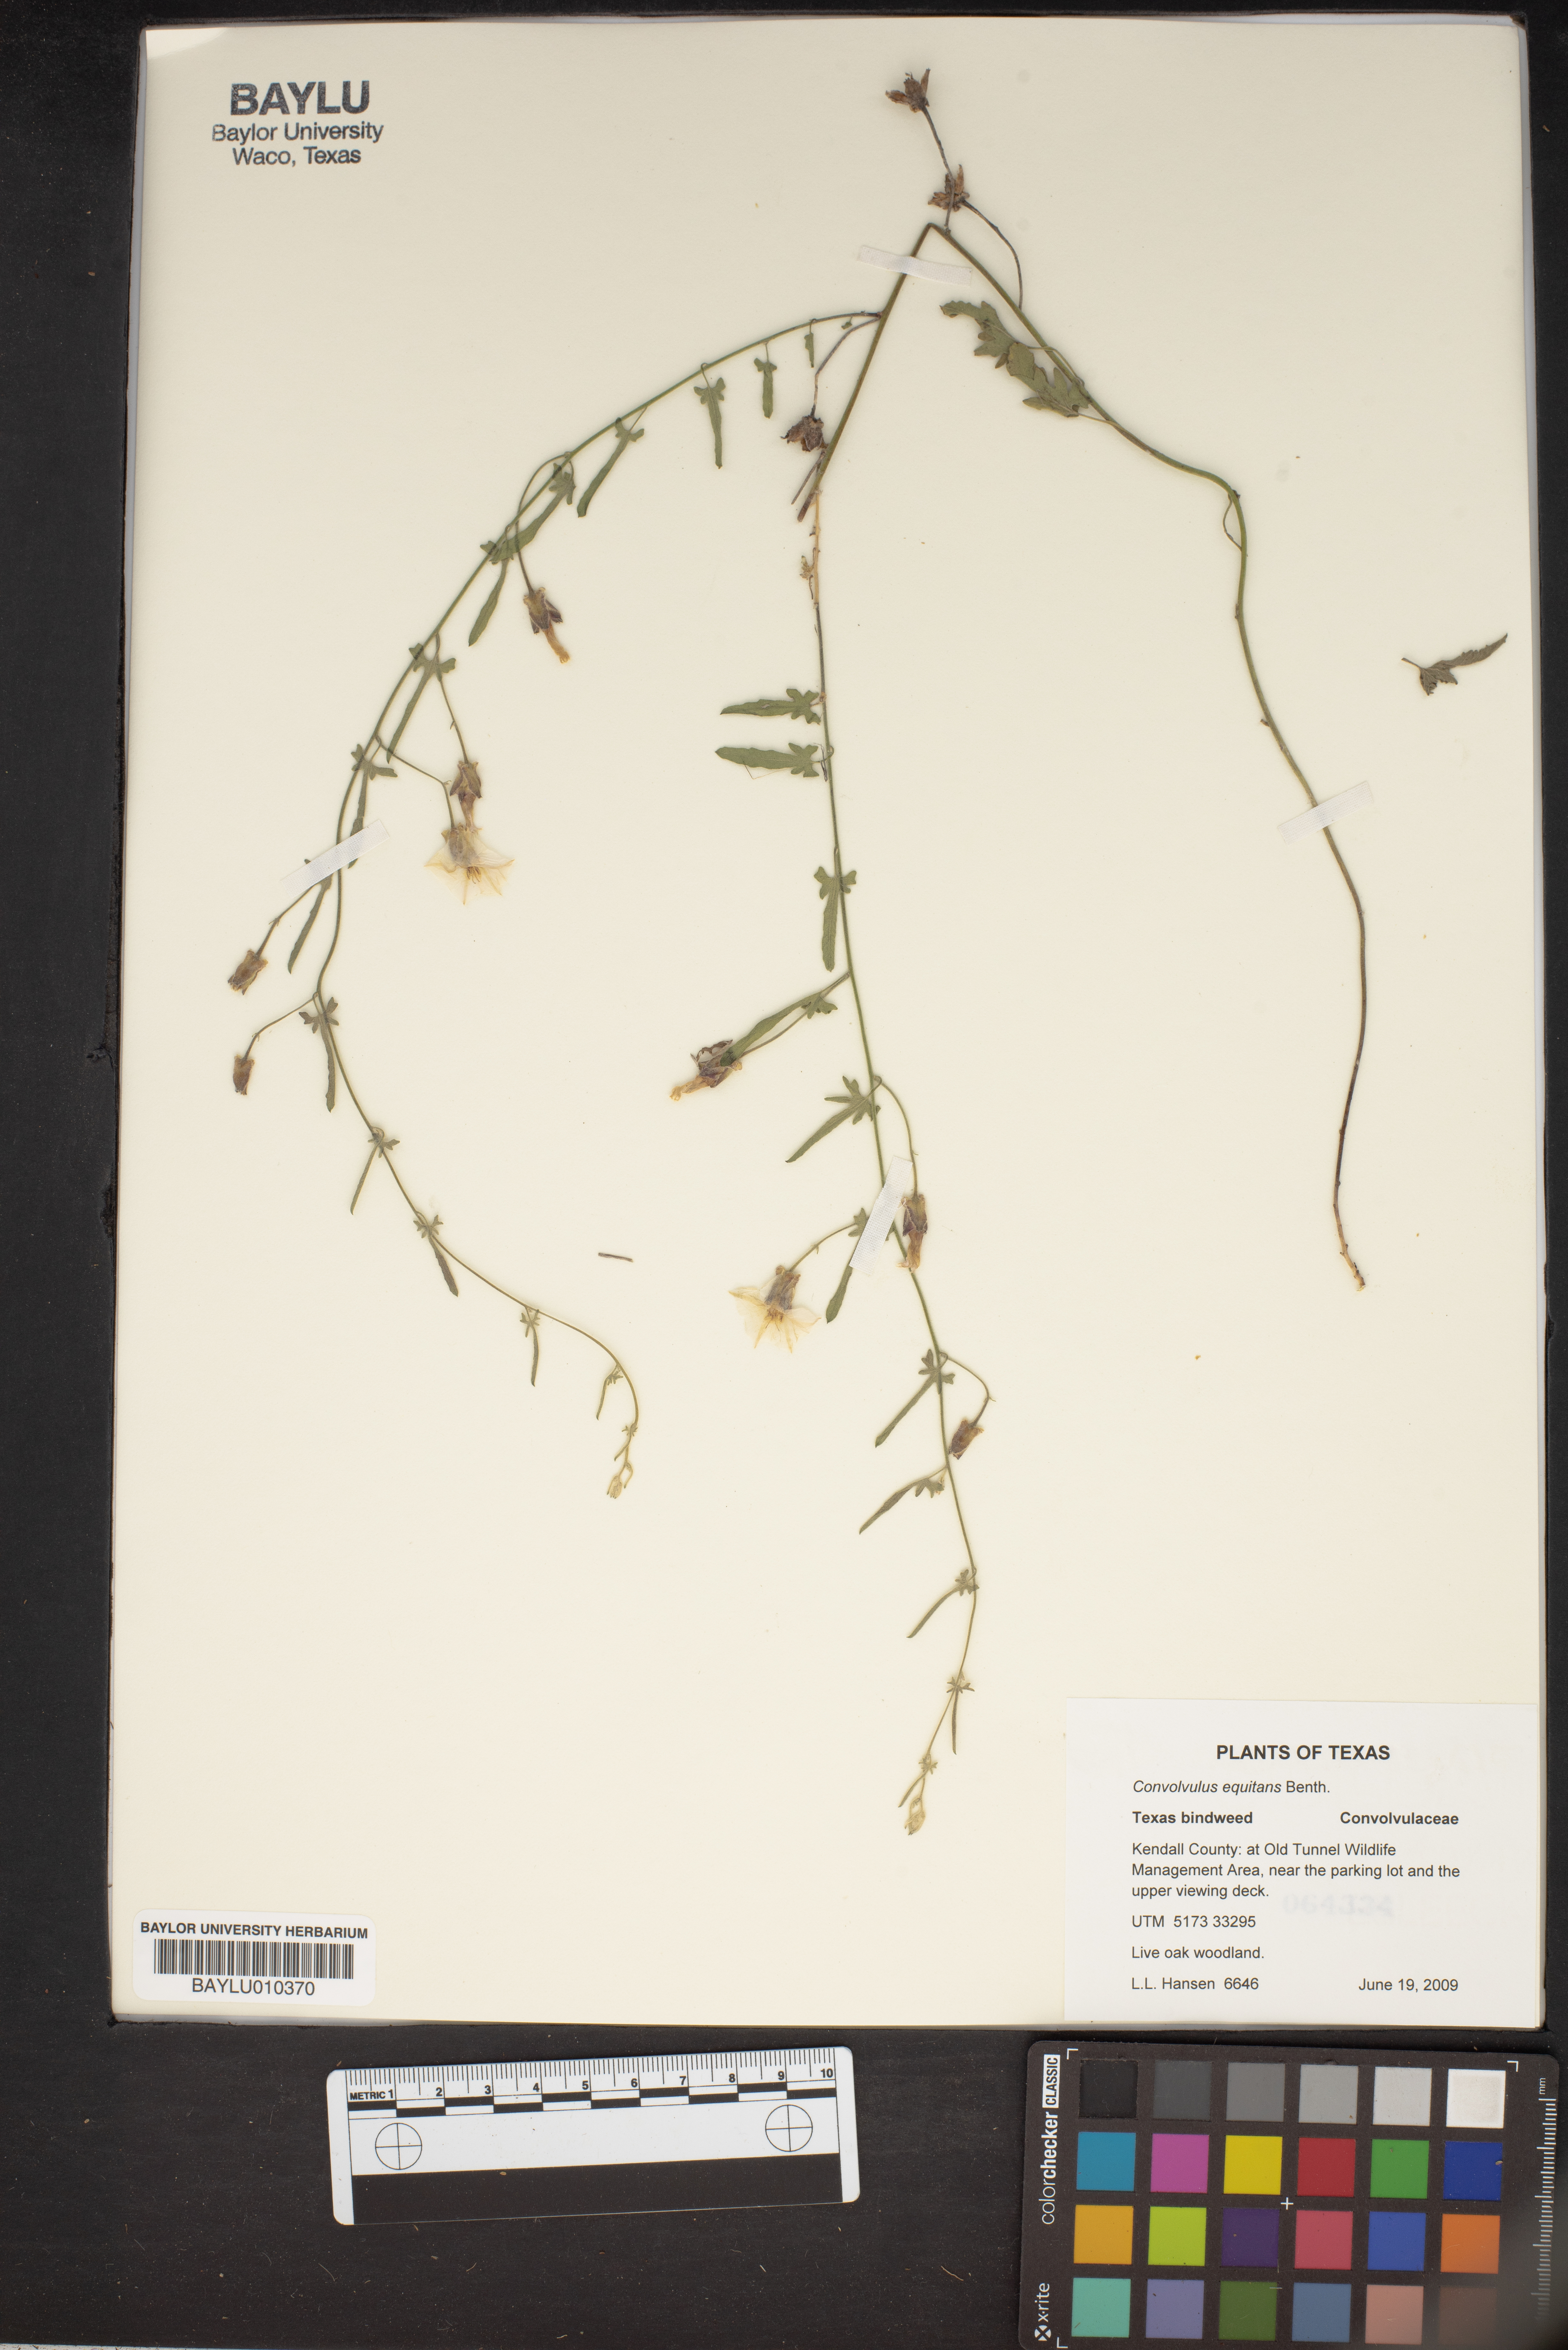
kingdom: Plantae
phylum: Tracheophyta
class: Magnoliopsida
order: Solanales
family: Convolvulaceae
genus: Convolvulus
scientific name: Convolvulus equitans
